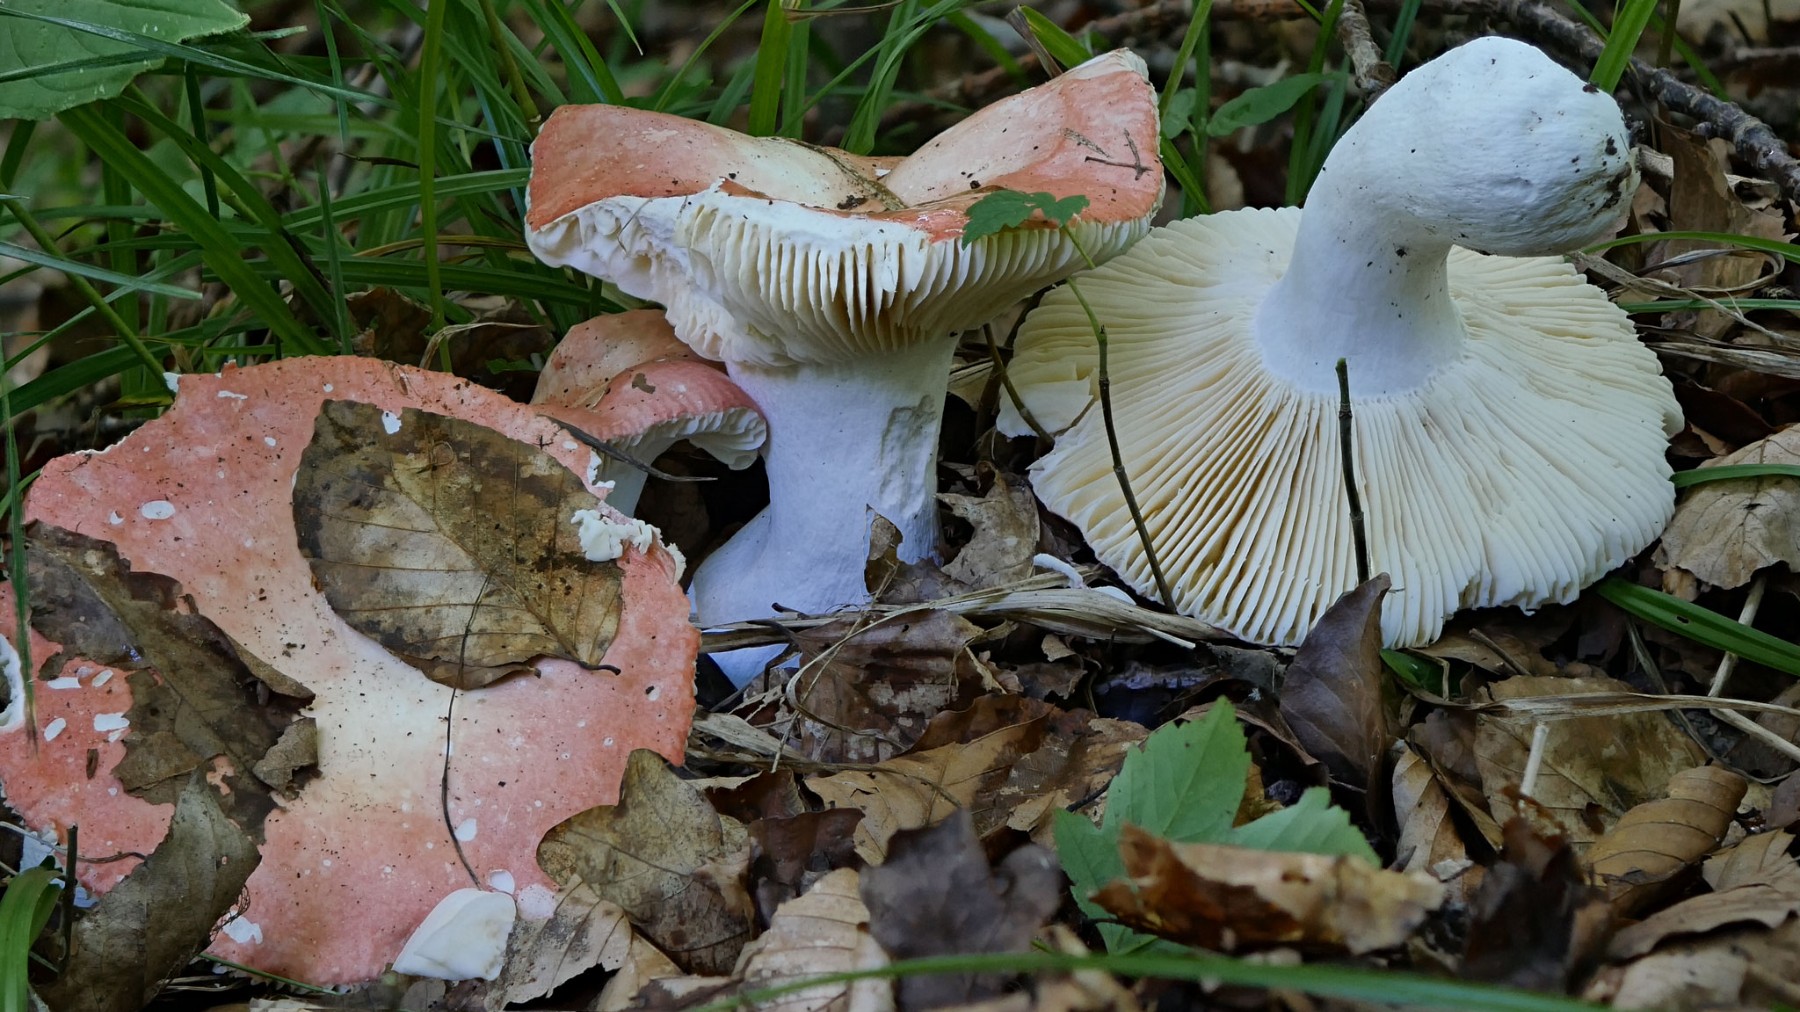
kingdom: Fungi
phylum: Basidiomycota
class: Agaricomycetes
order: Russulales
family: Russulaceae
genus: Russula
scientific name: Russula pseudointegra
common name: cinnoberrød skørhat
